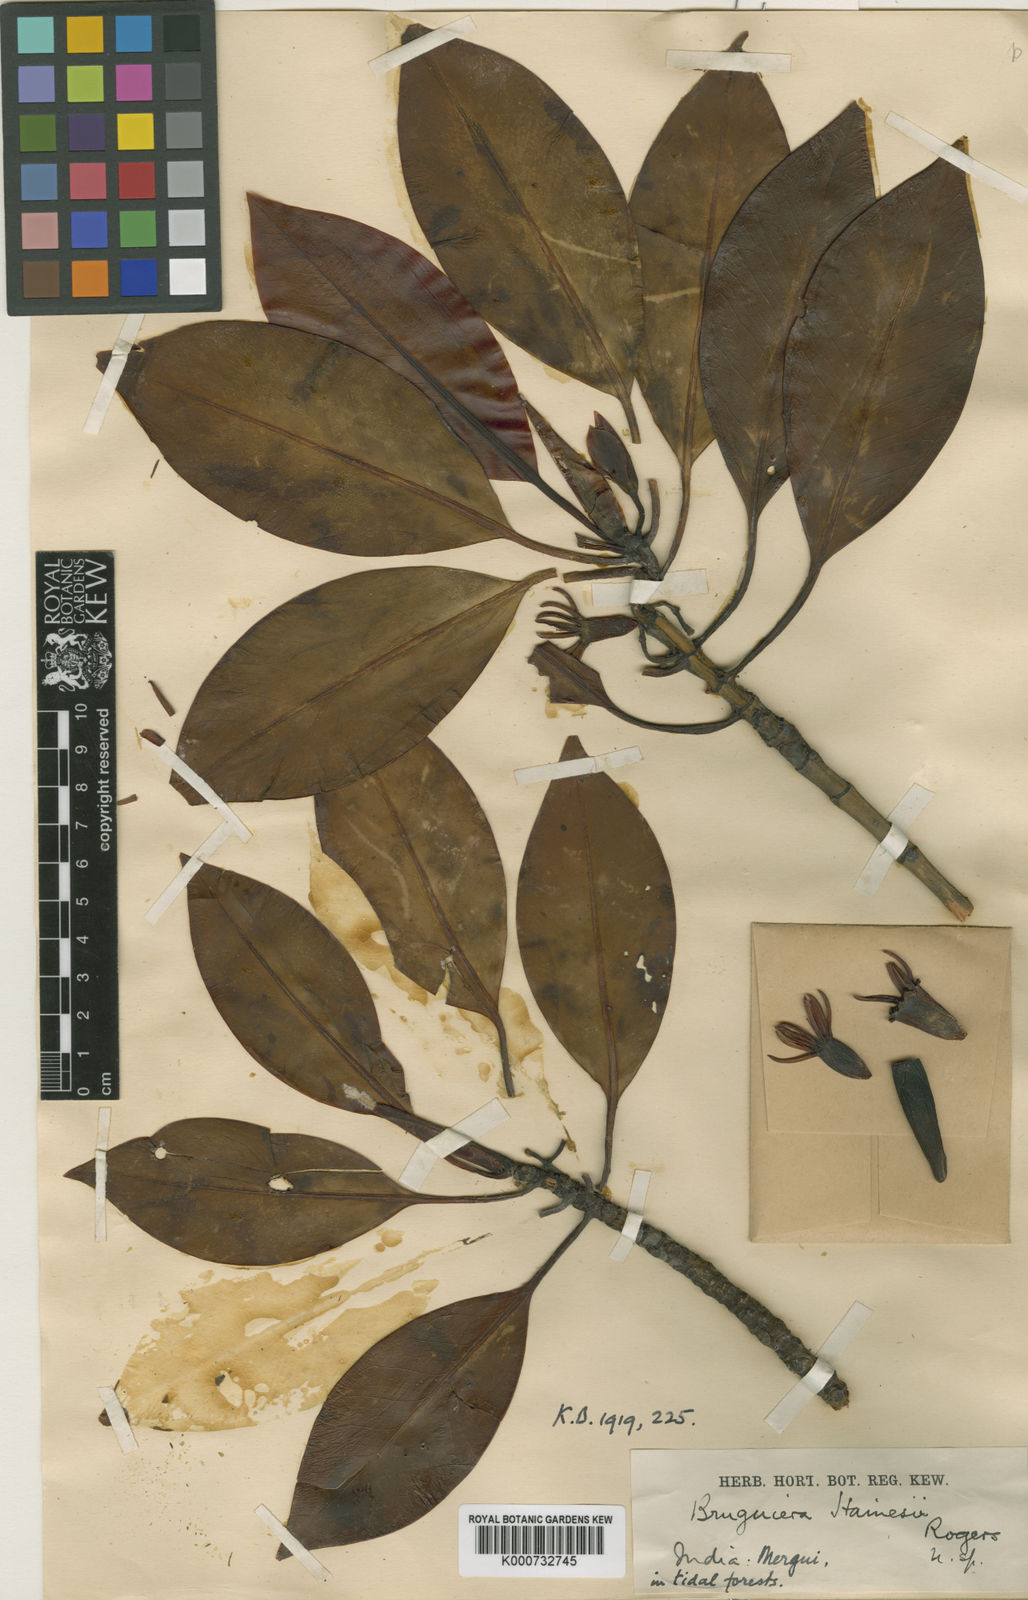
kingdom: Plantae
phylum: Tracheophyta
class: Magnoliopsida
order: Malpighiales
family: Rhizophoraceae
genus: Bruguiera
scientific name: Bruguiera hainesii
